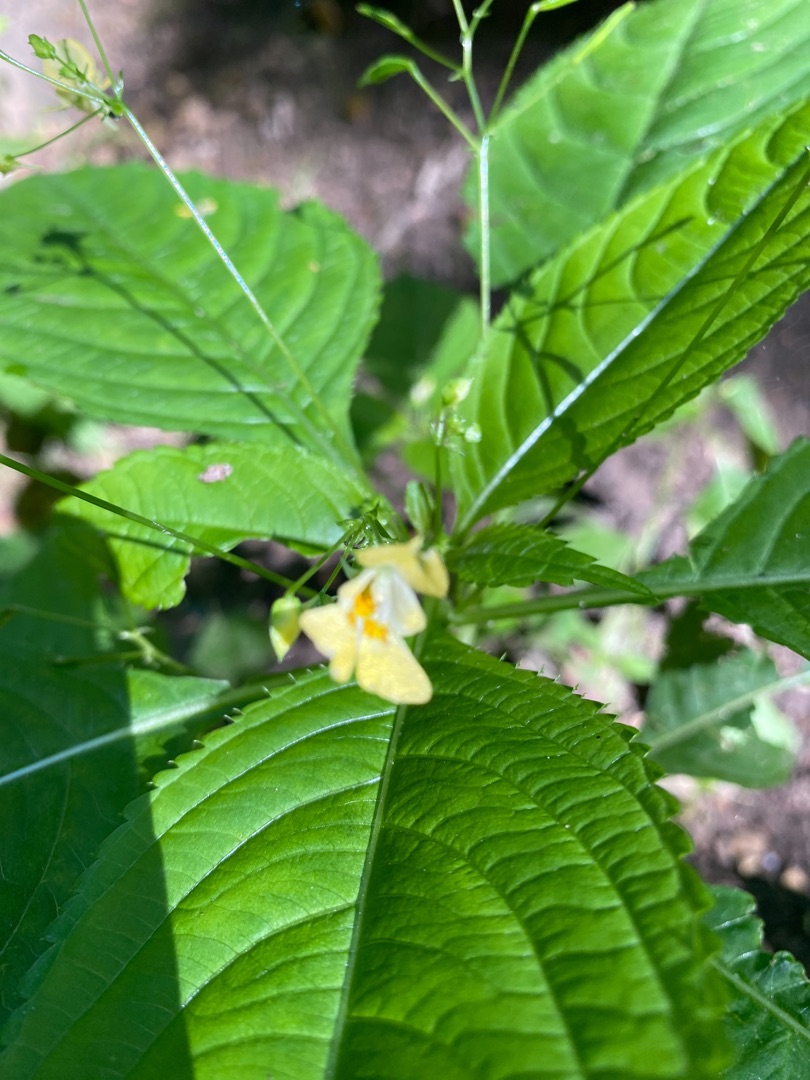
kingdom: Plantae
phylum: Tracheophyta
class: Magnoliopsida
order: Ericales
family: Balsaminaceae
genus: Impatiens
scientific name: Impatiens parviflora
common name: Småblomstret balsamin
